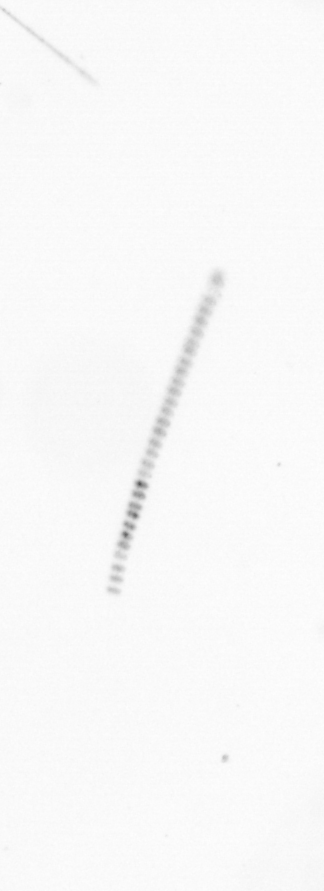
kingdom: Chromista
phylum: Ochrophyta
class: Bacillariophyceae
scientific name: Bacillariophyceae
